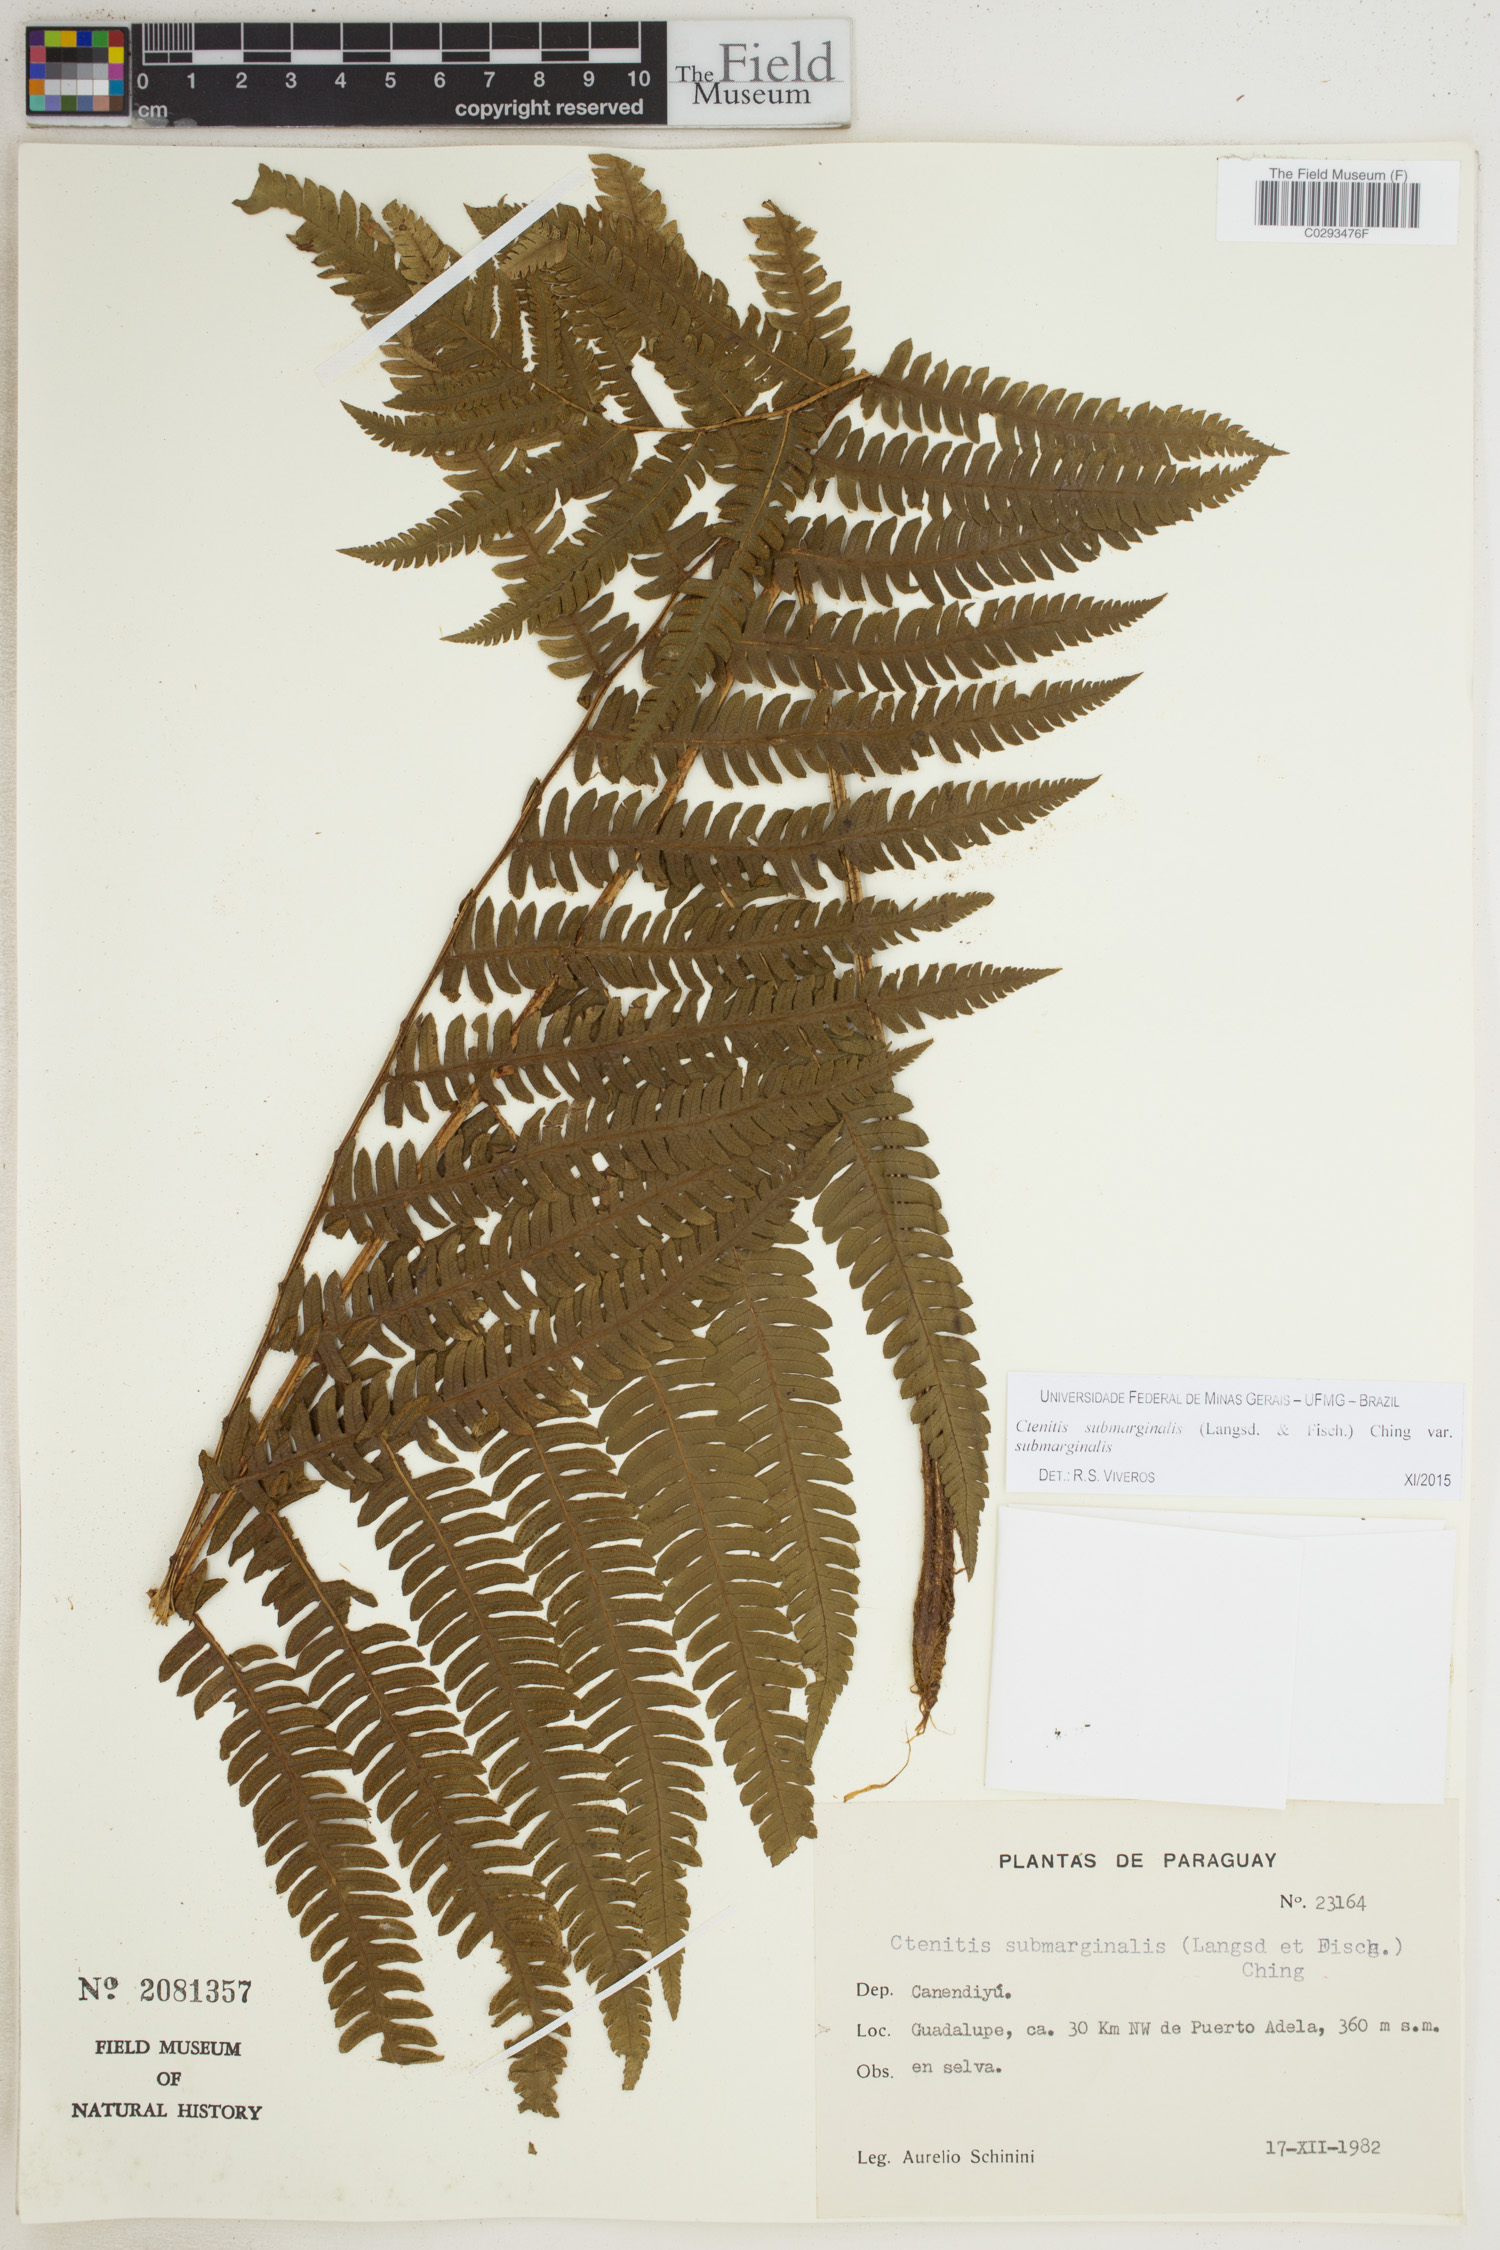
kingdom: Plantae
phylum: Tracheophyta
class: Polypodiopsida
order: Polypodiales
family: Dryopteridaceae
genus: Ctenitis
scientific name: Ctenitis submarginalis
